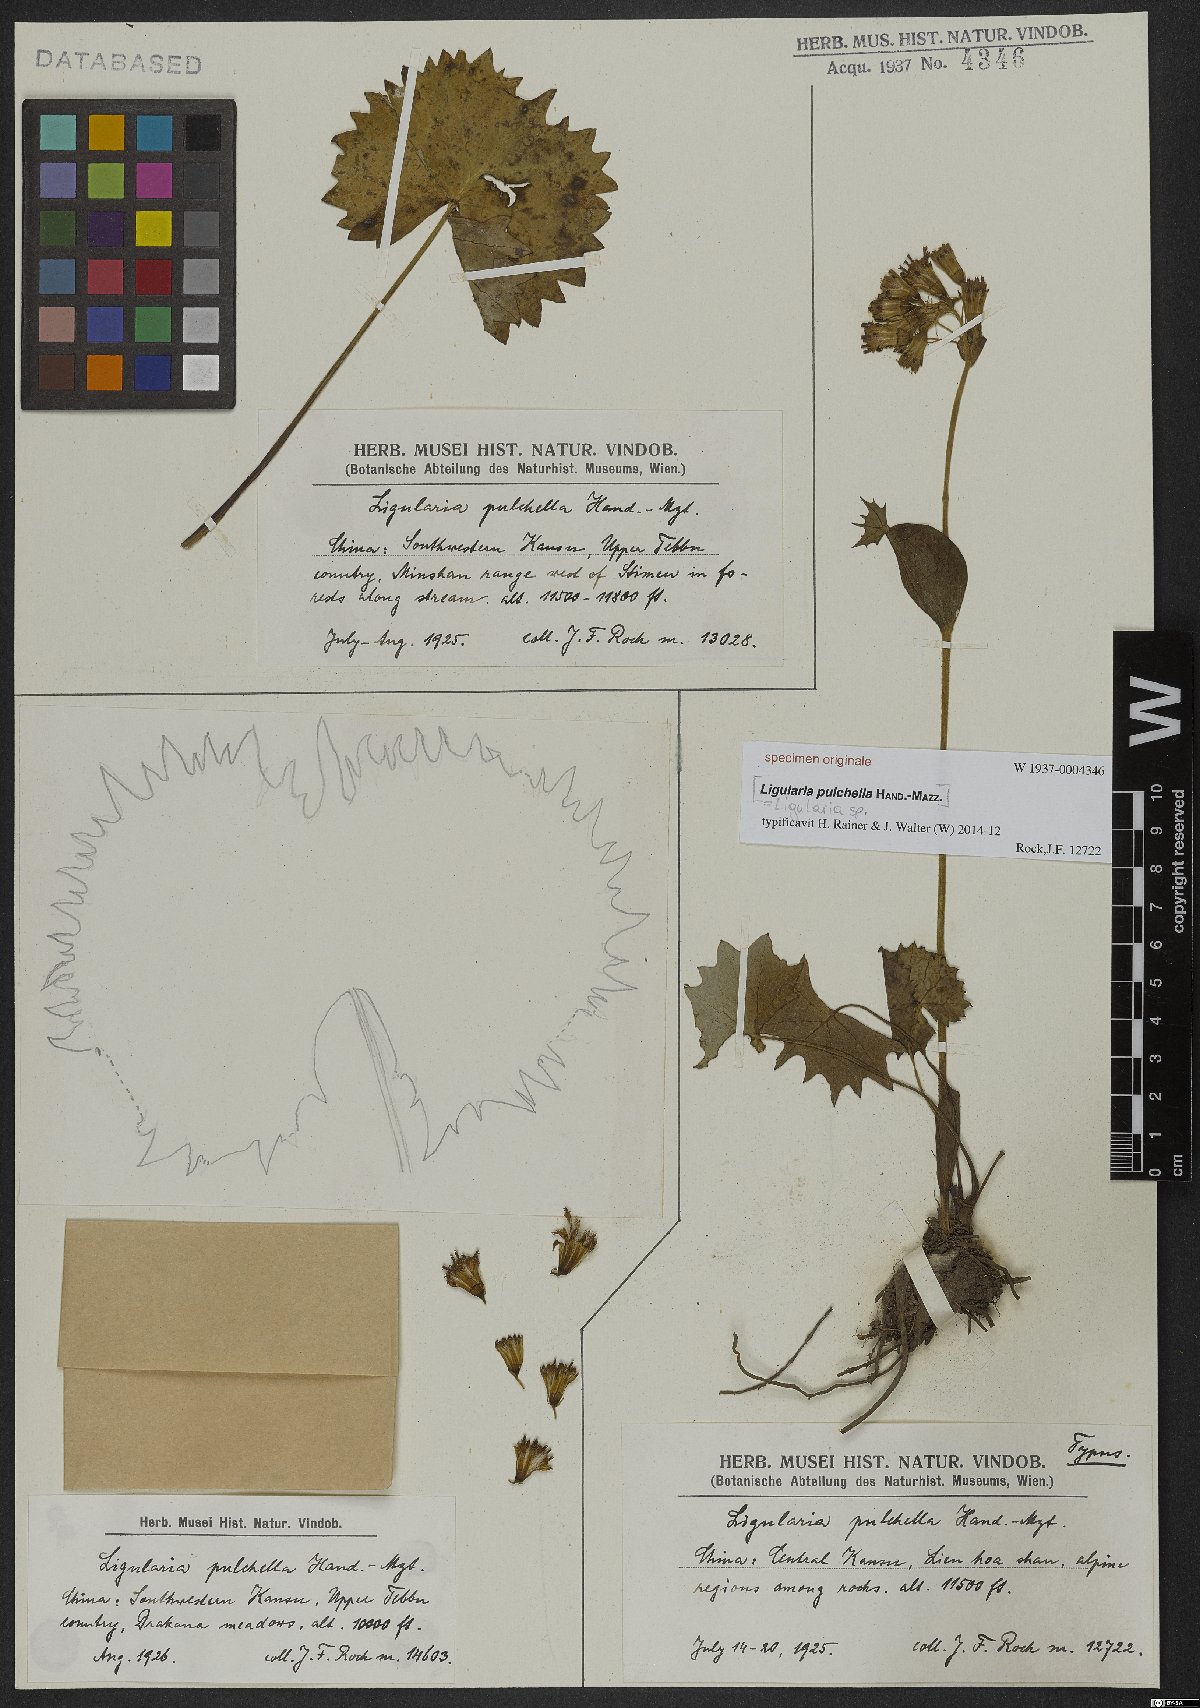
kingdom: Plantae
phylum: Tracheophyta
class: Magnoliopsida
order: Asterales
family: Asteraceae
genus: Ligularia
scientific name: Ligularia
